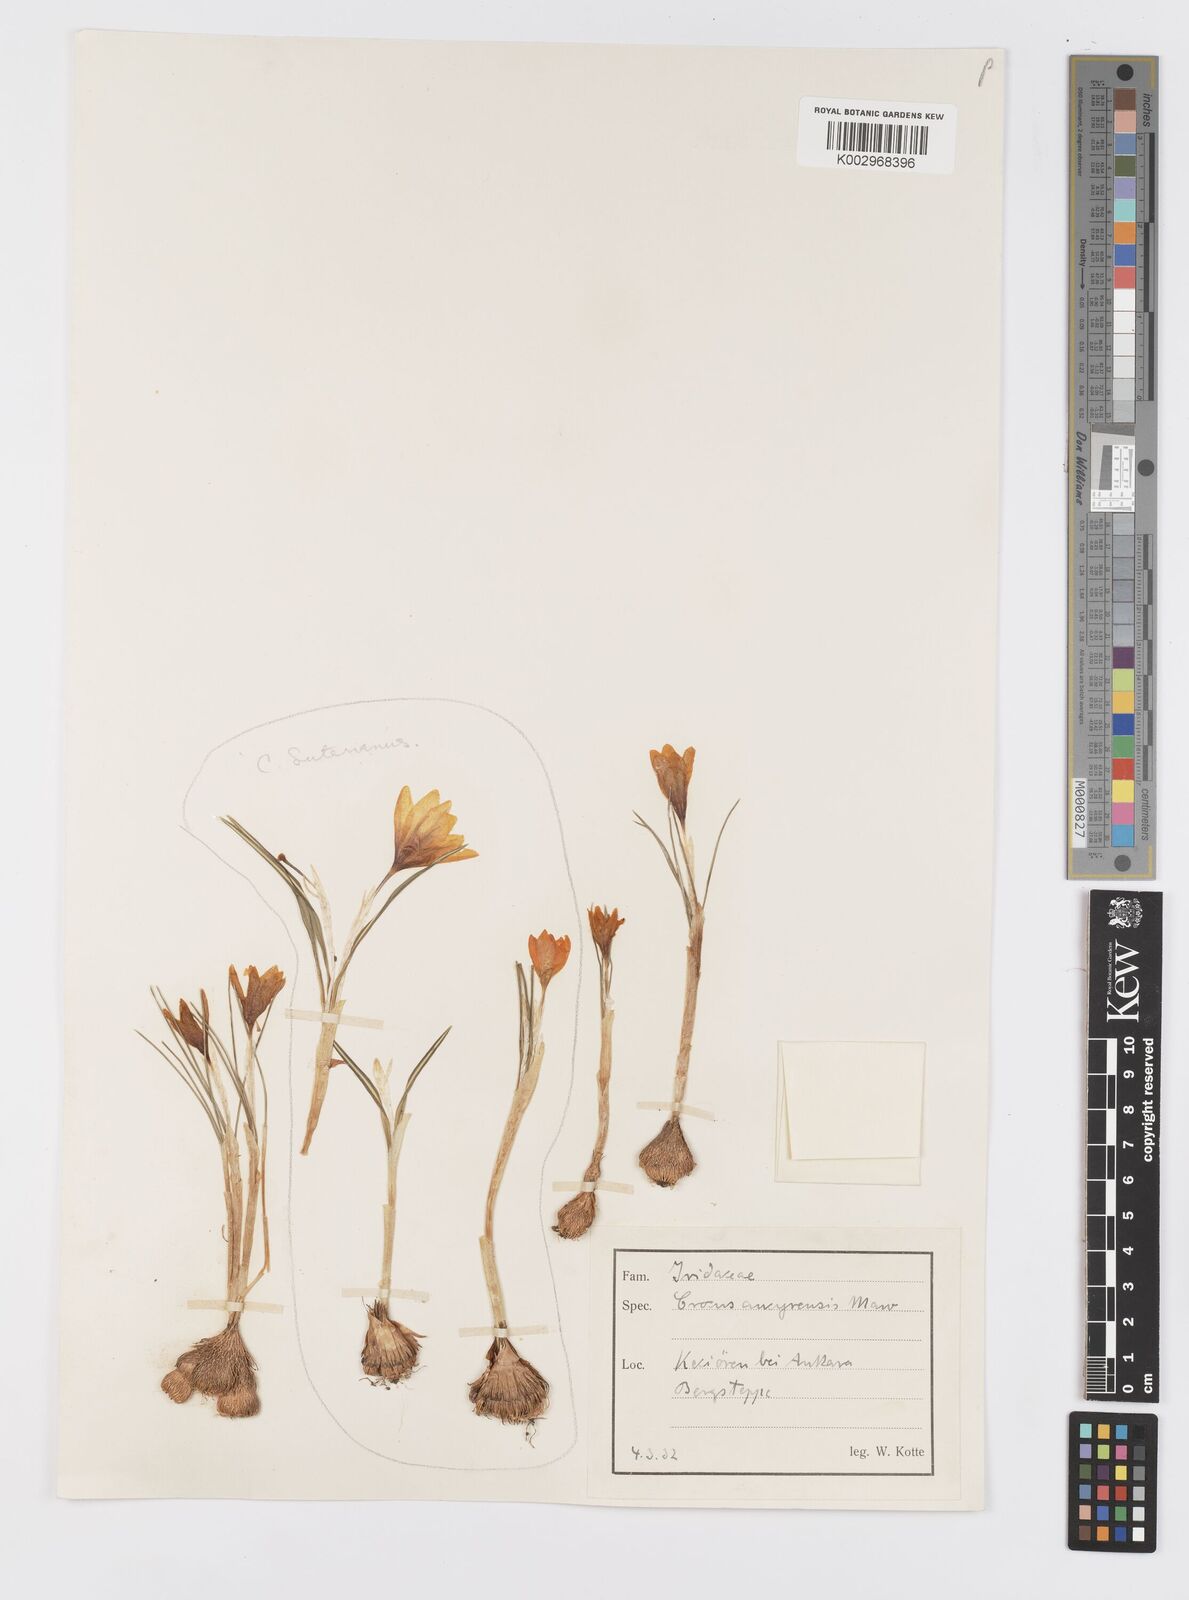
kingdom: Plantae
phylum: Tracheophyta
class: Liliopsida
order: Asparagales
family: Iridaceae
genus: Crocus
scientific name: Crocus ancyrensis
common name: Ankara crocus
